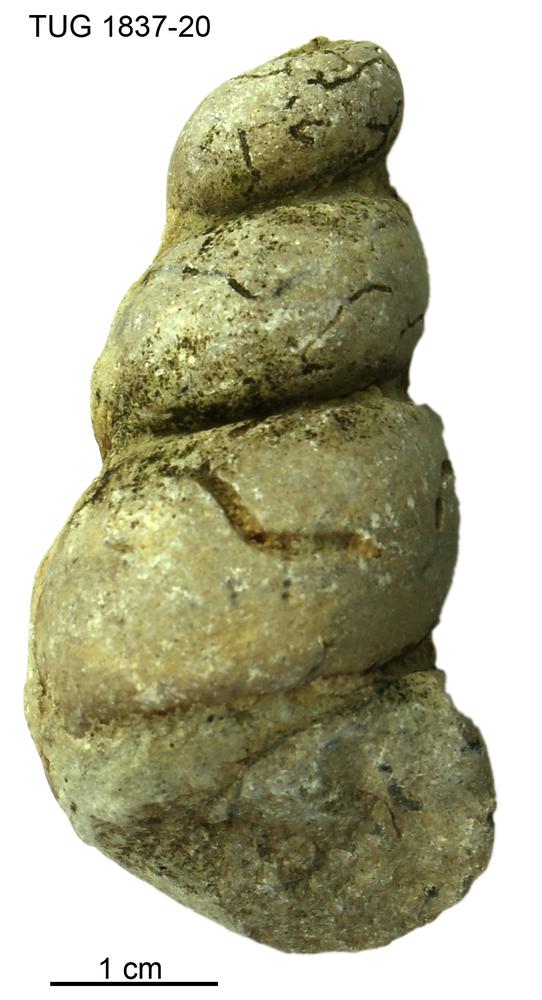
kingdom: Animalia
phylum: Mollusca
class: Gastropoda
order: Pleurotomariida
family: Murchisoniidae
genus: Hormotoma
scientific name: Hormotoma
